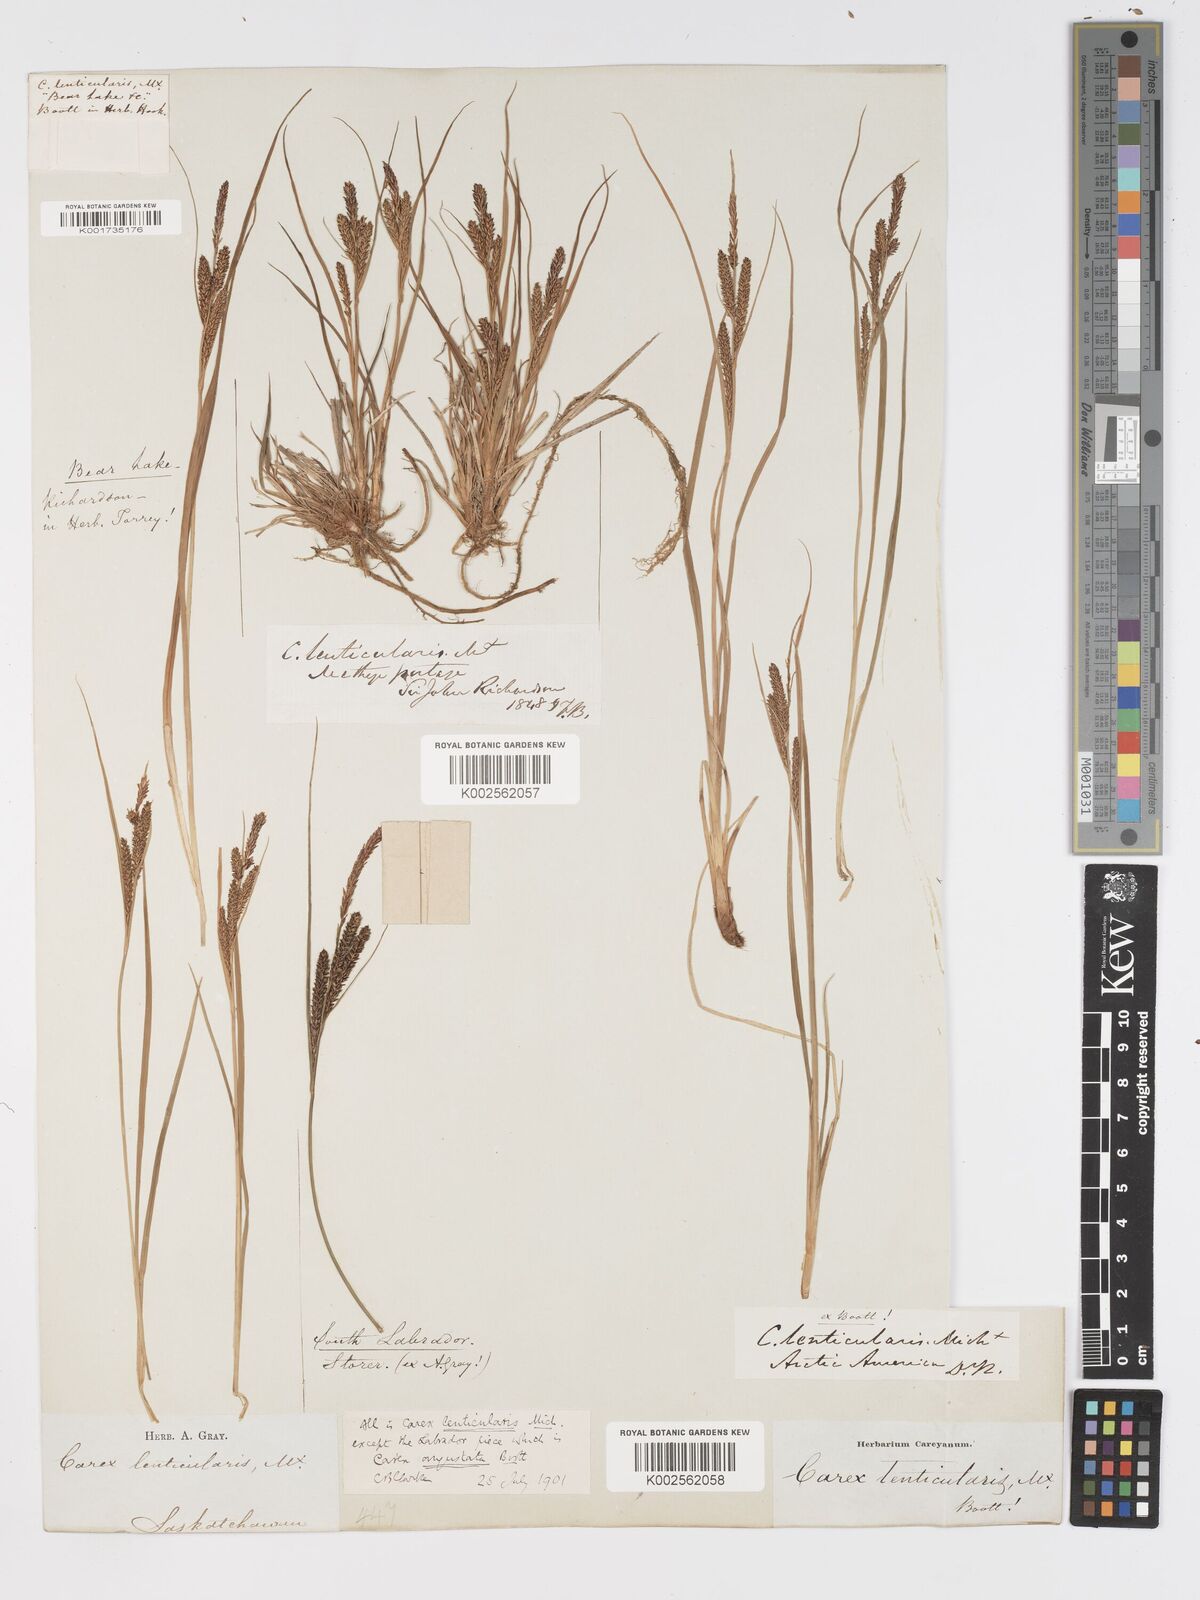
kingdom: Plantae
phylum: Tracheophyta
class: Liliopsida
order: Poales
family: Cyperaceae
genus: Carex
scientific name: Carex lenticularis
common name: Lakeshore sedge
